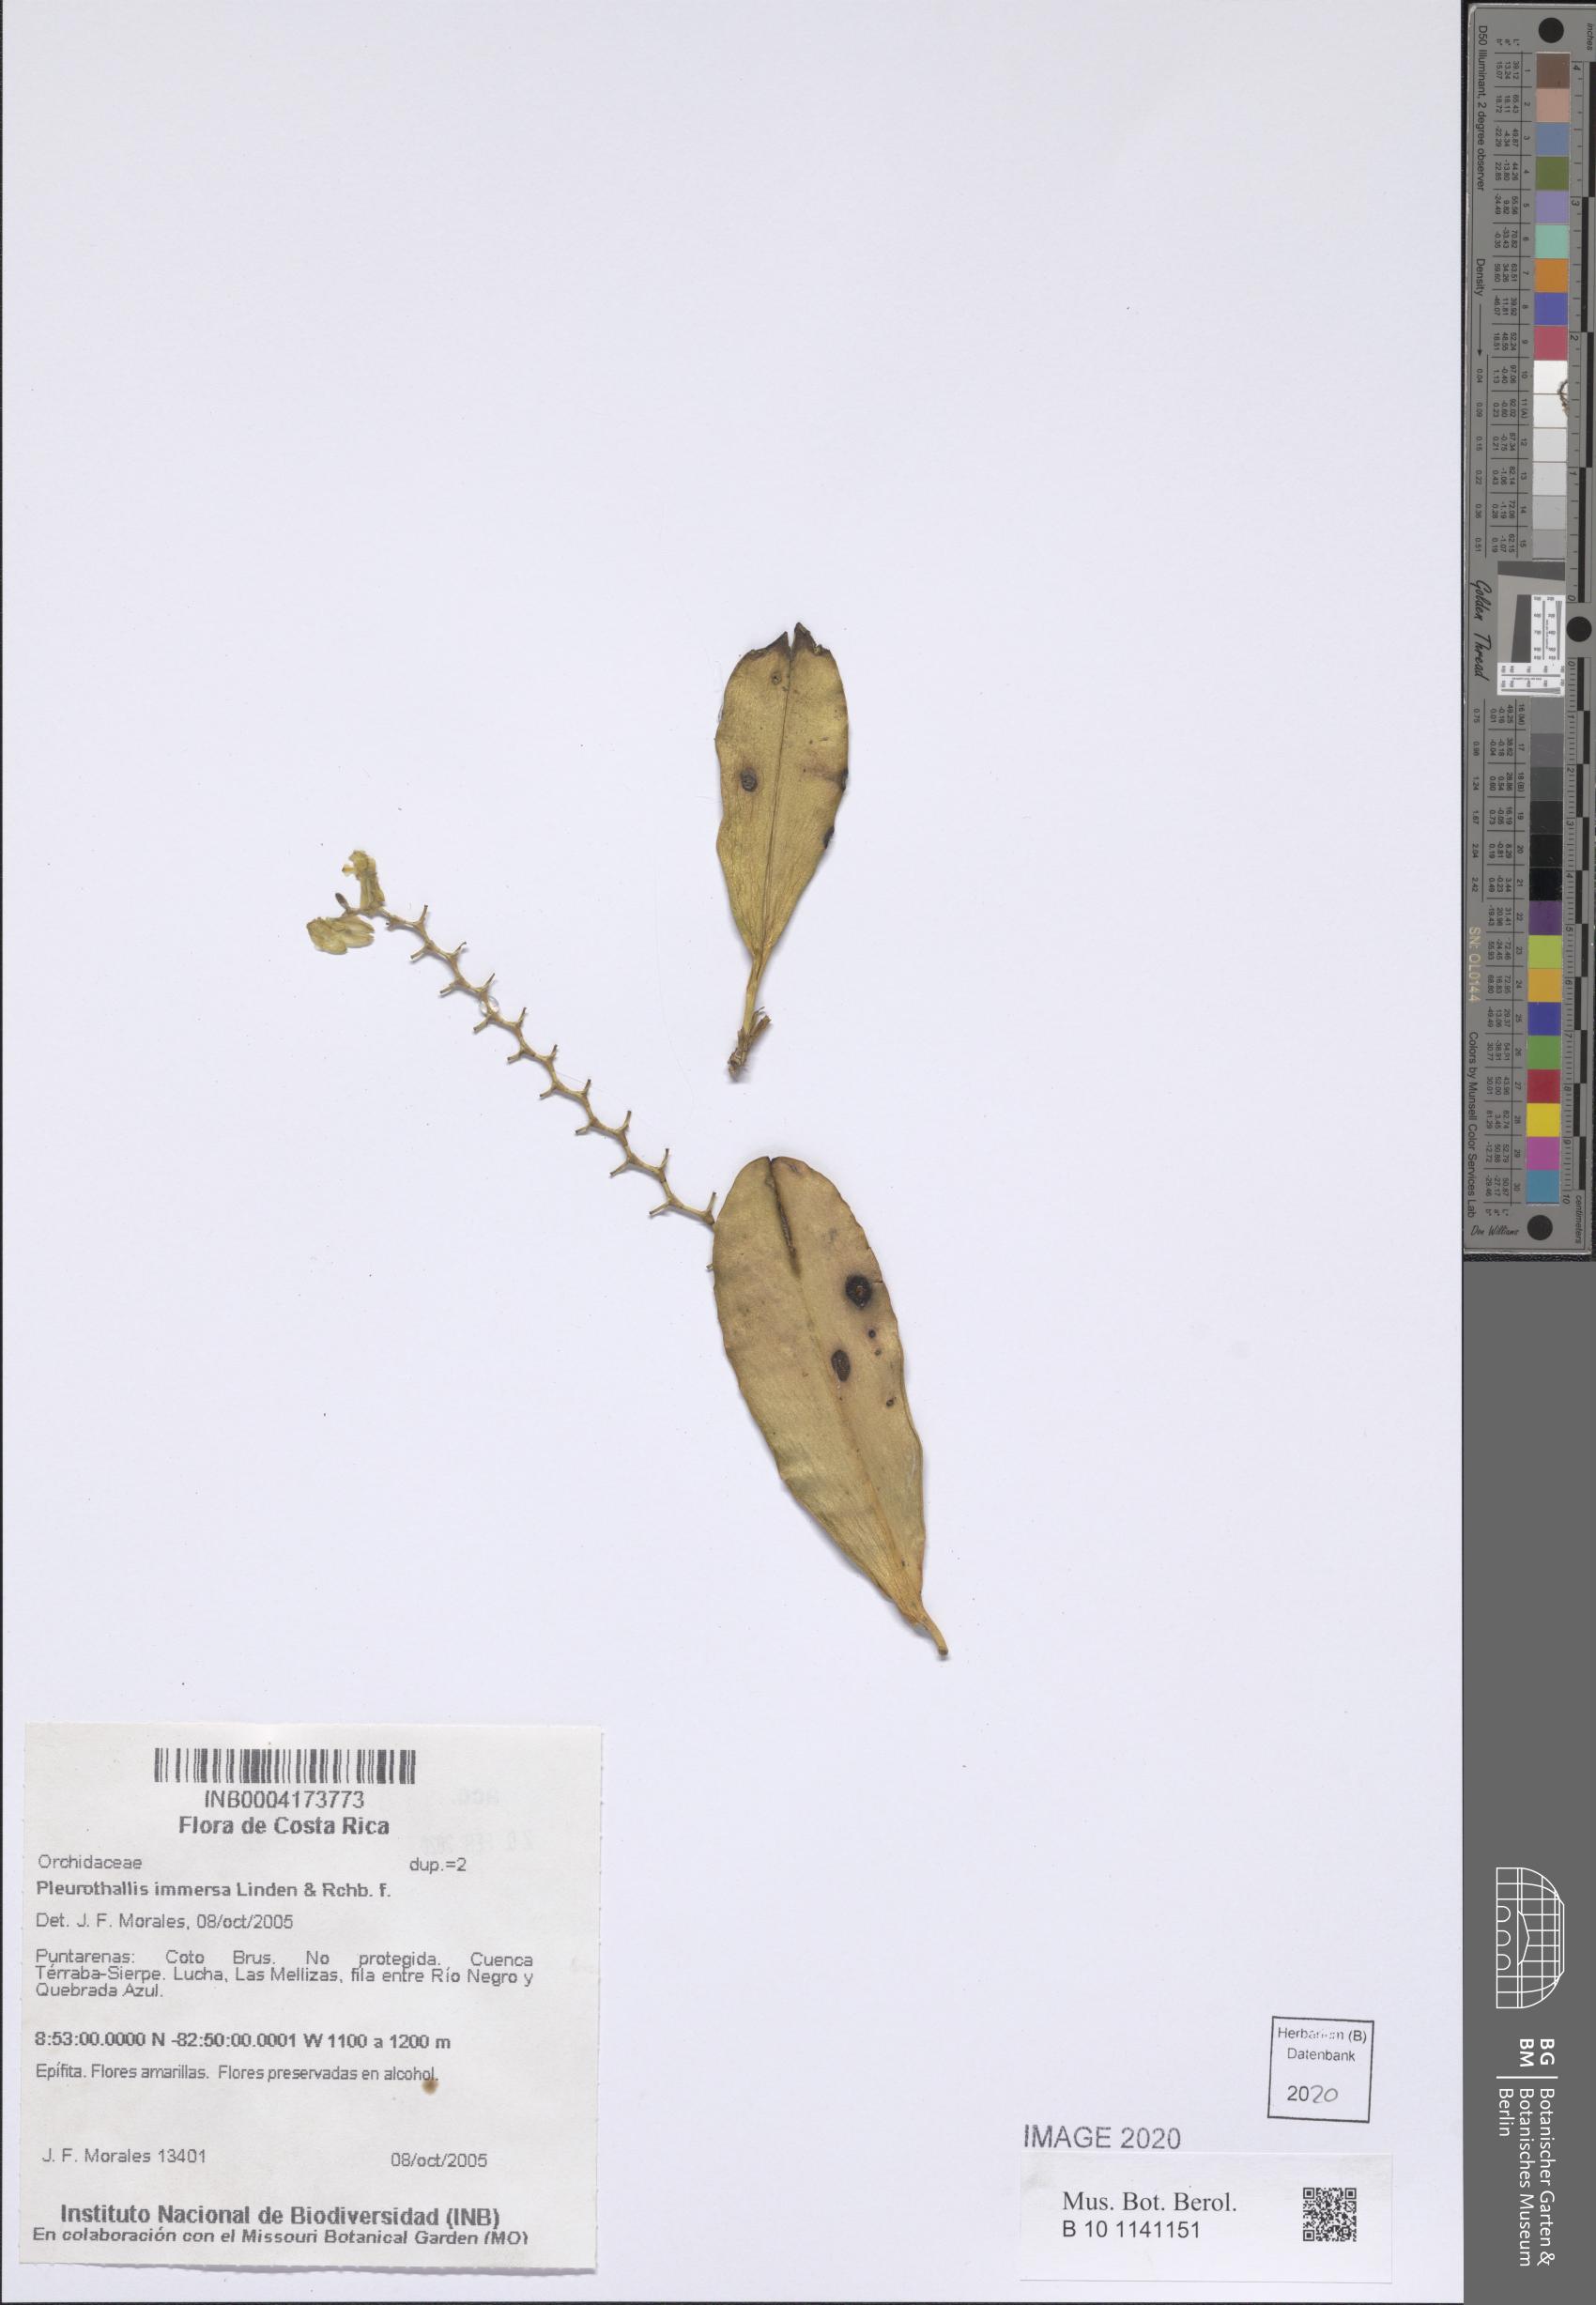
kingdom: Plantae
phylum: Tracheophyta
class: Liliopsida
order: Asparagales
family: Orchidaceae
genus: Stelis
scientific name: Stelis immersa
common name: Sunken pleurothallis
